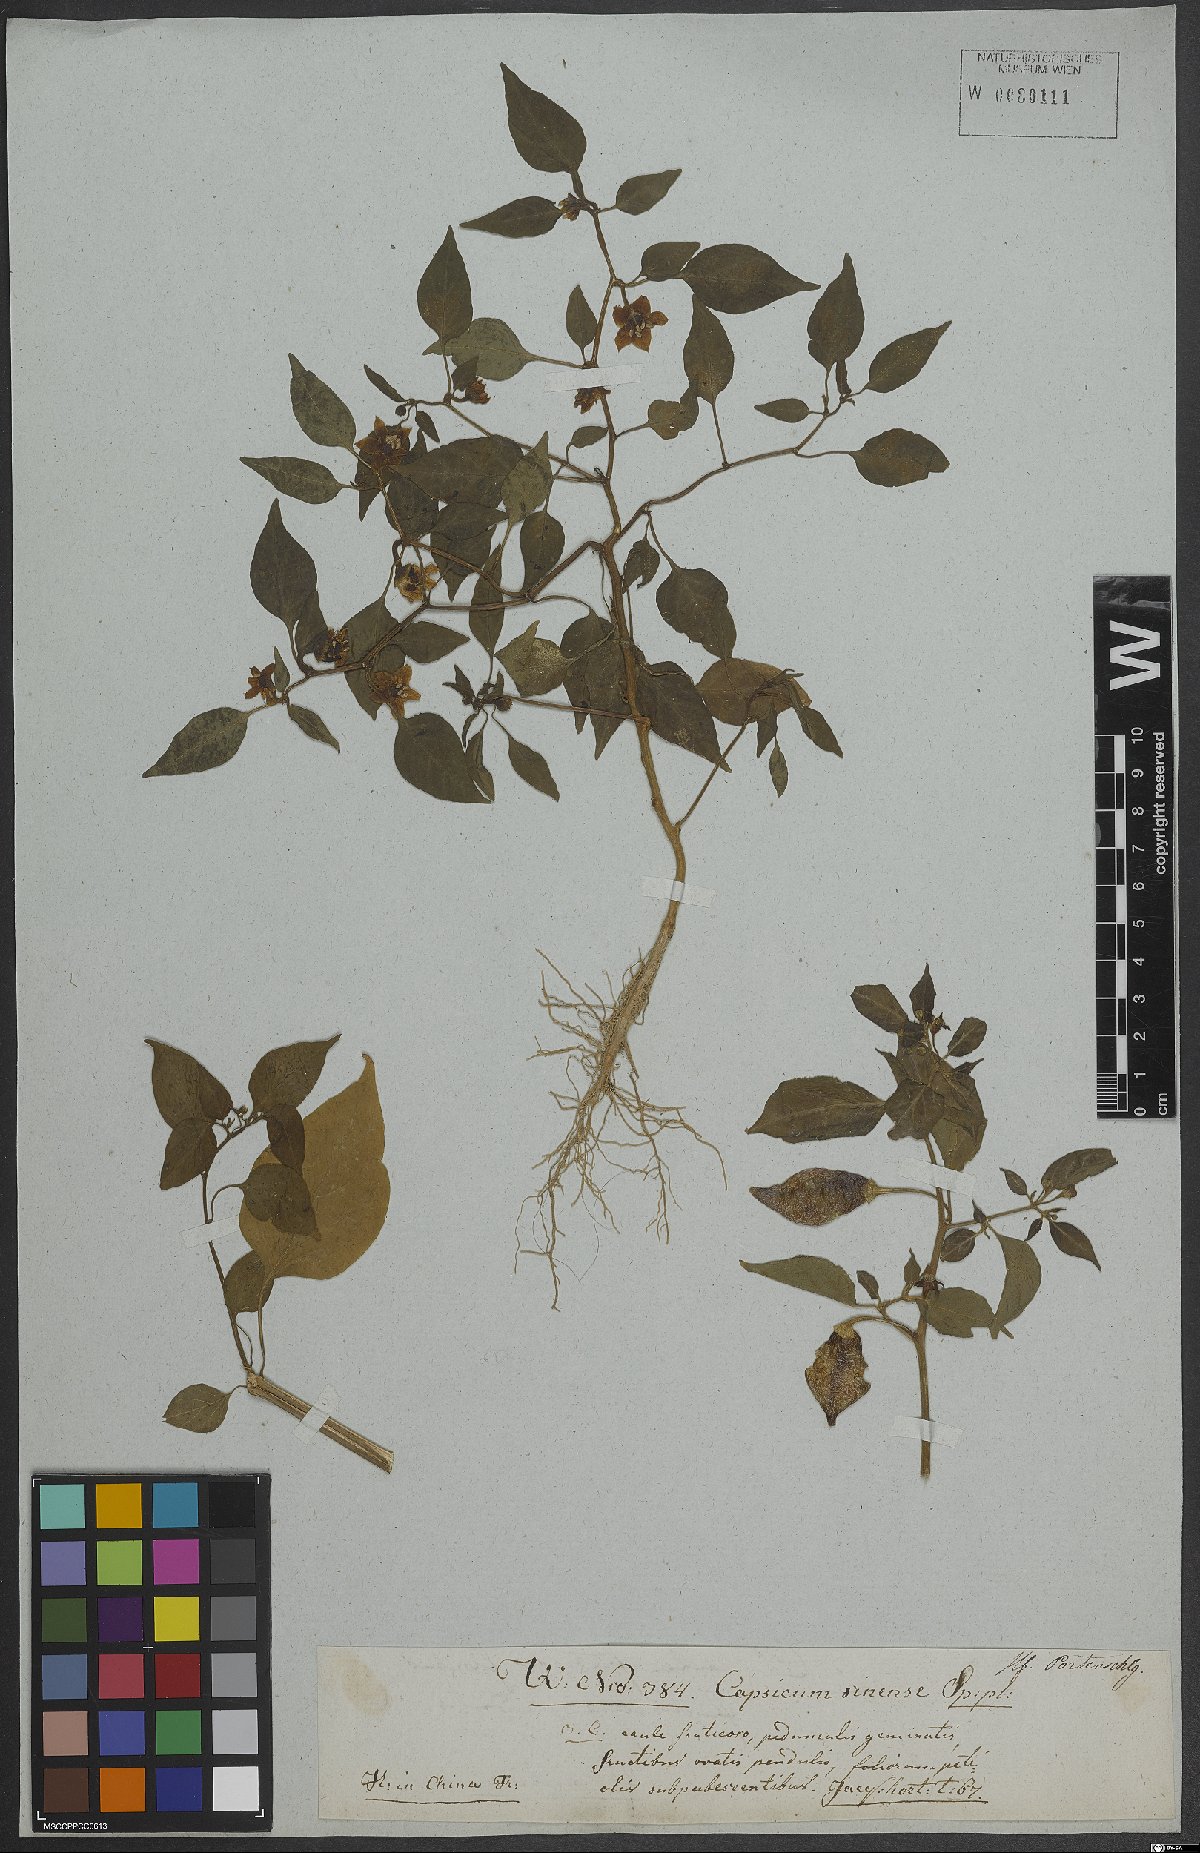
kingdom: Plantae
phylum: Tracheophyta
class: Magnoliopsida
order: Solanales
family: Solanaceae
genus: Capsicum
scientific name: Capsicum sinense
